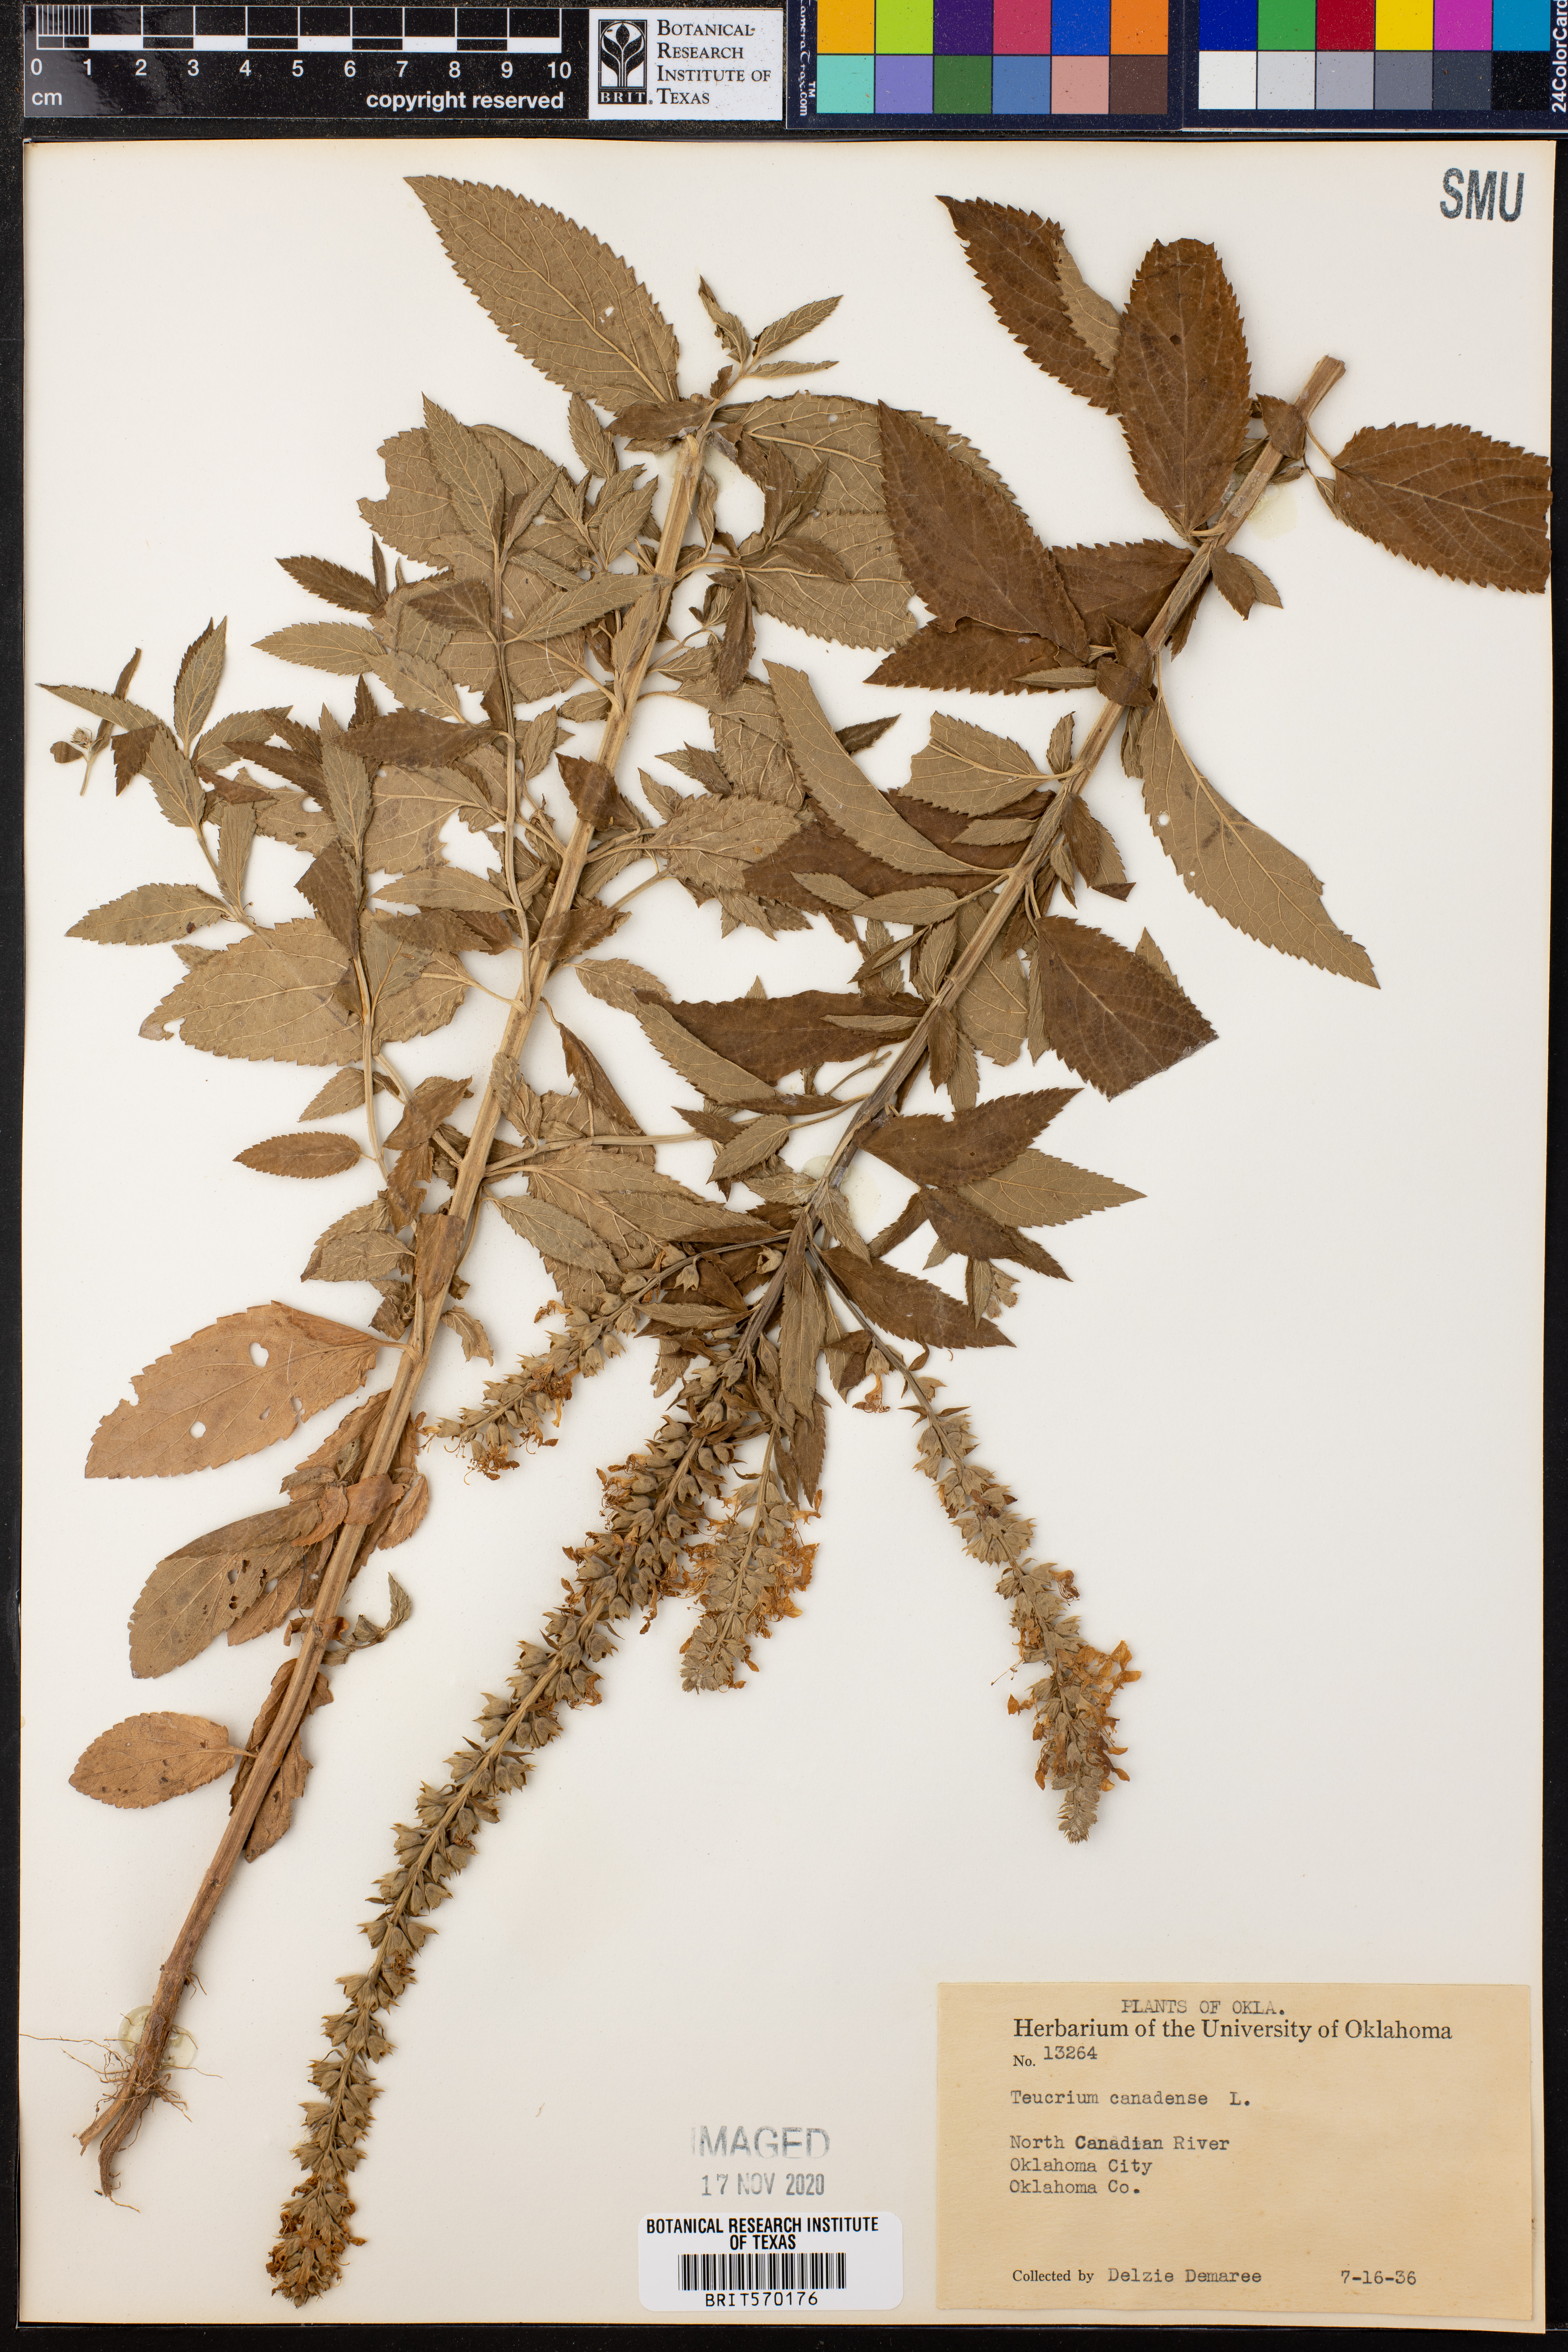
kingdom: Plantae
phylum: Tracheophyta
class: Magnoliopsida
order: Lamiales
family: Lamiaceae
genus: Teucrium
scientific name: Teucrium canadense
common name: American germander
